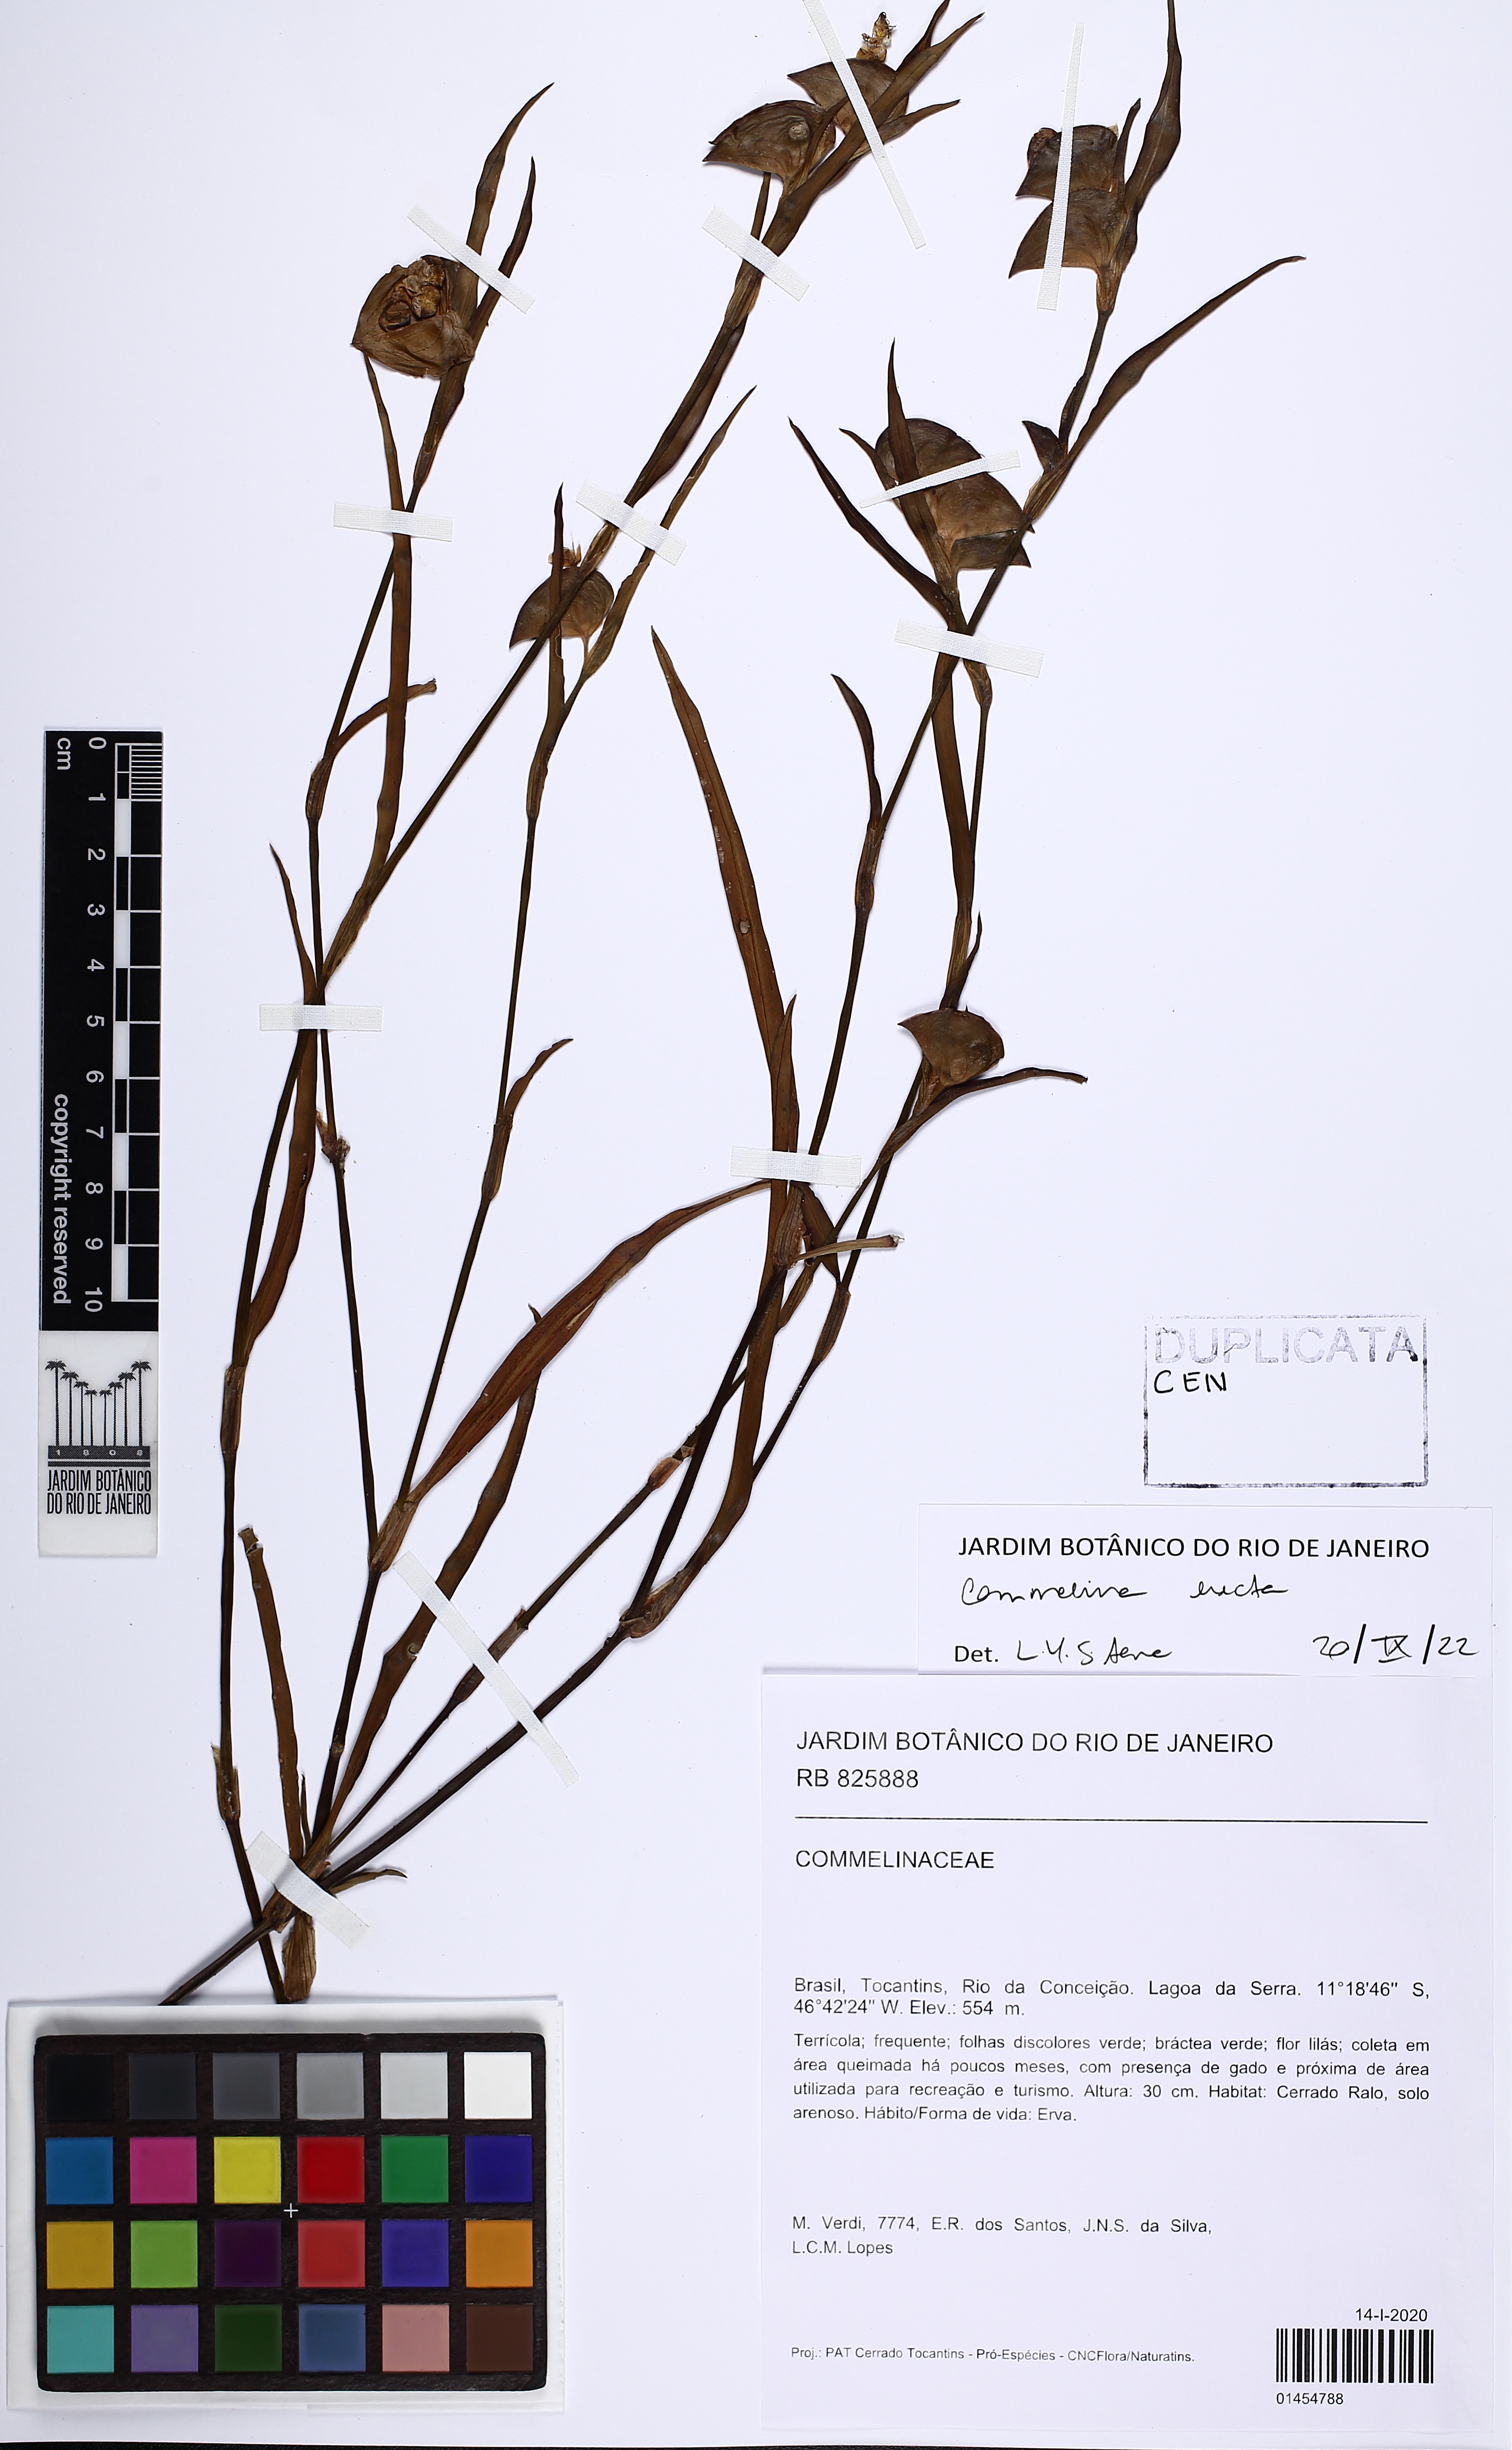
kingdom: Plantae
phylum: Tracheophyta
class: Liliopsida
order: Commelinales
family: Commelinaceae
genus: Commelina
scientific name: Commelina erecta
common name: Blousel blommetjie
